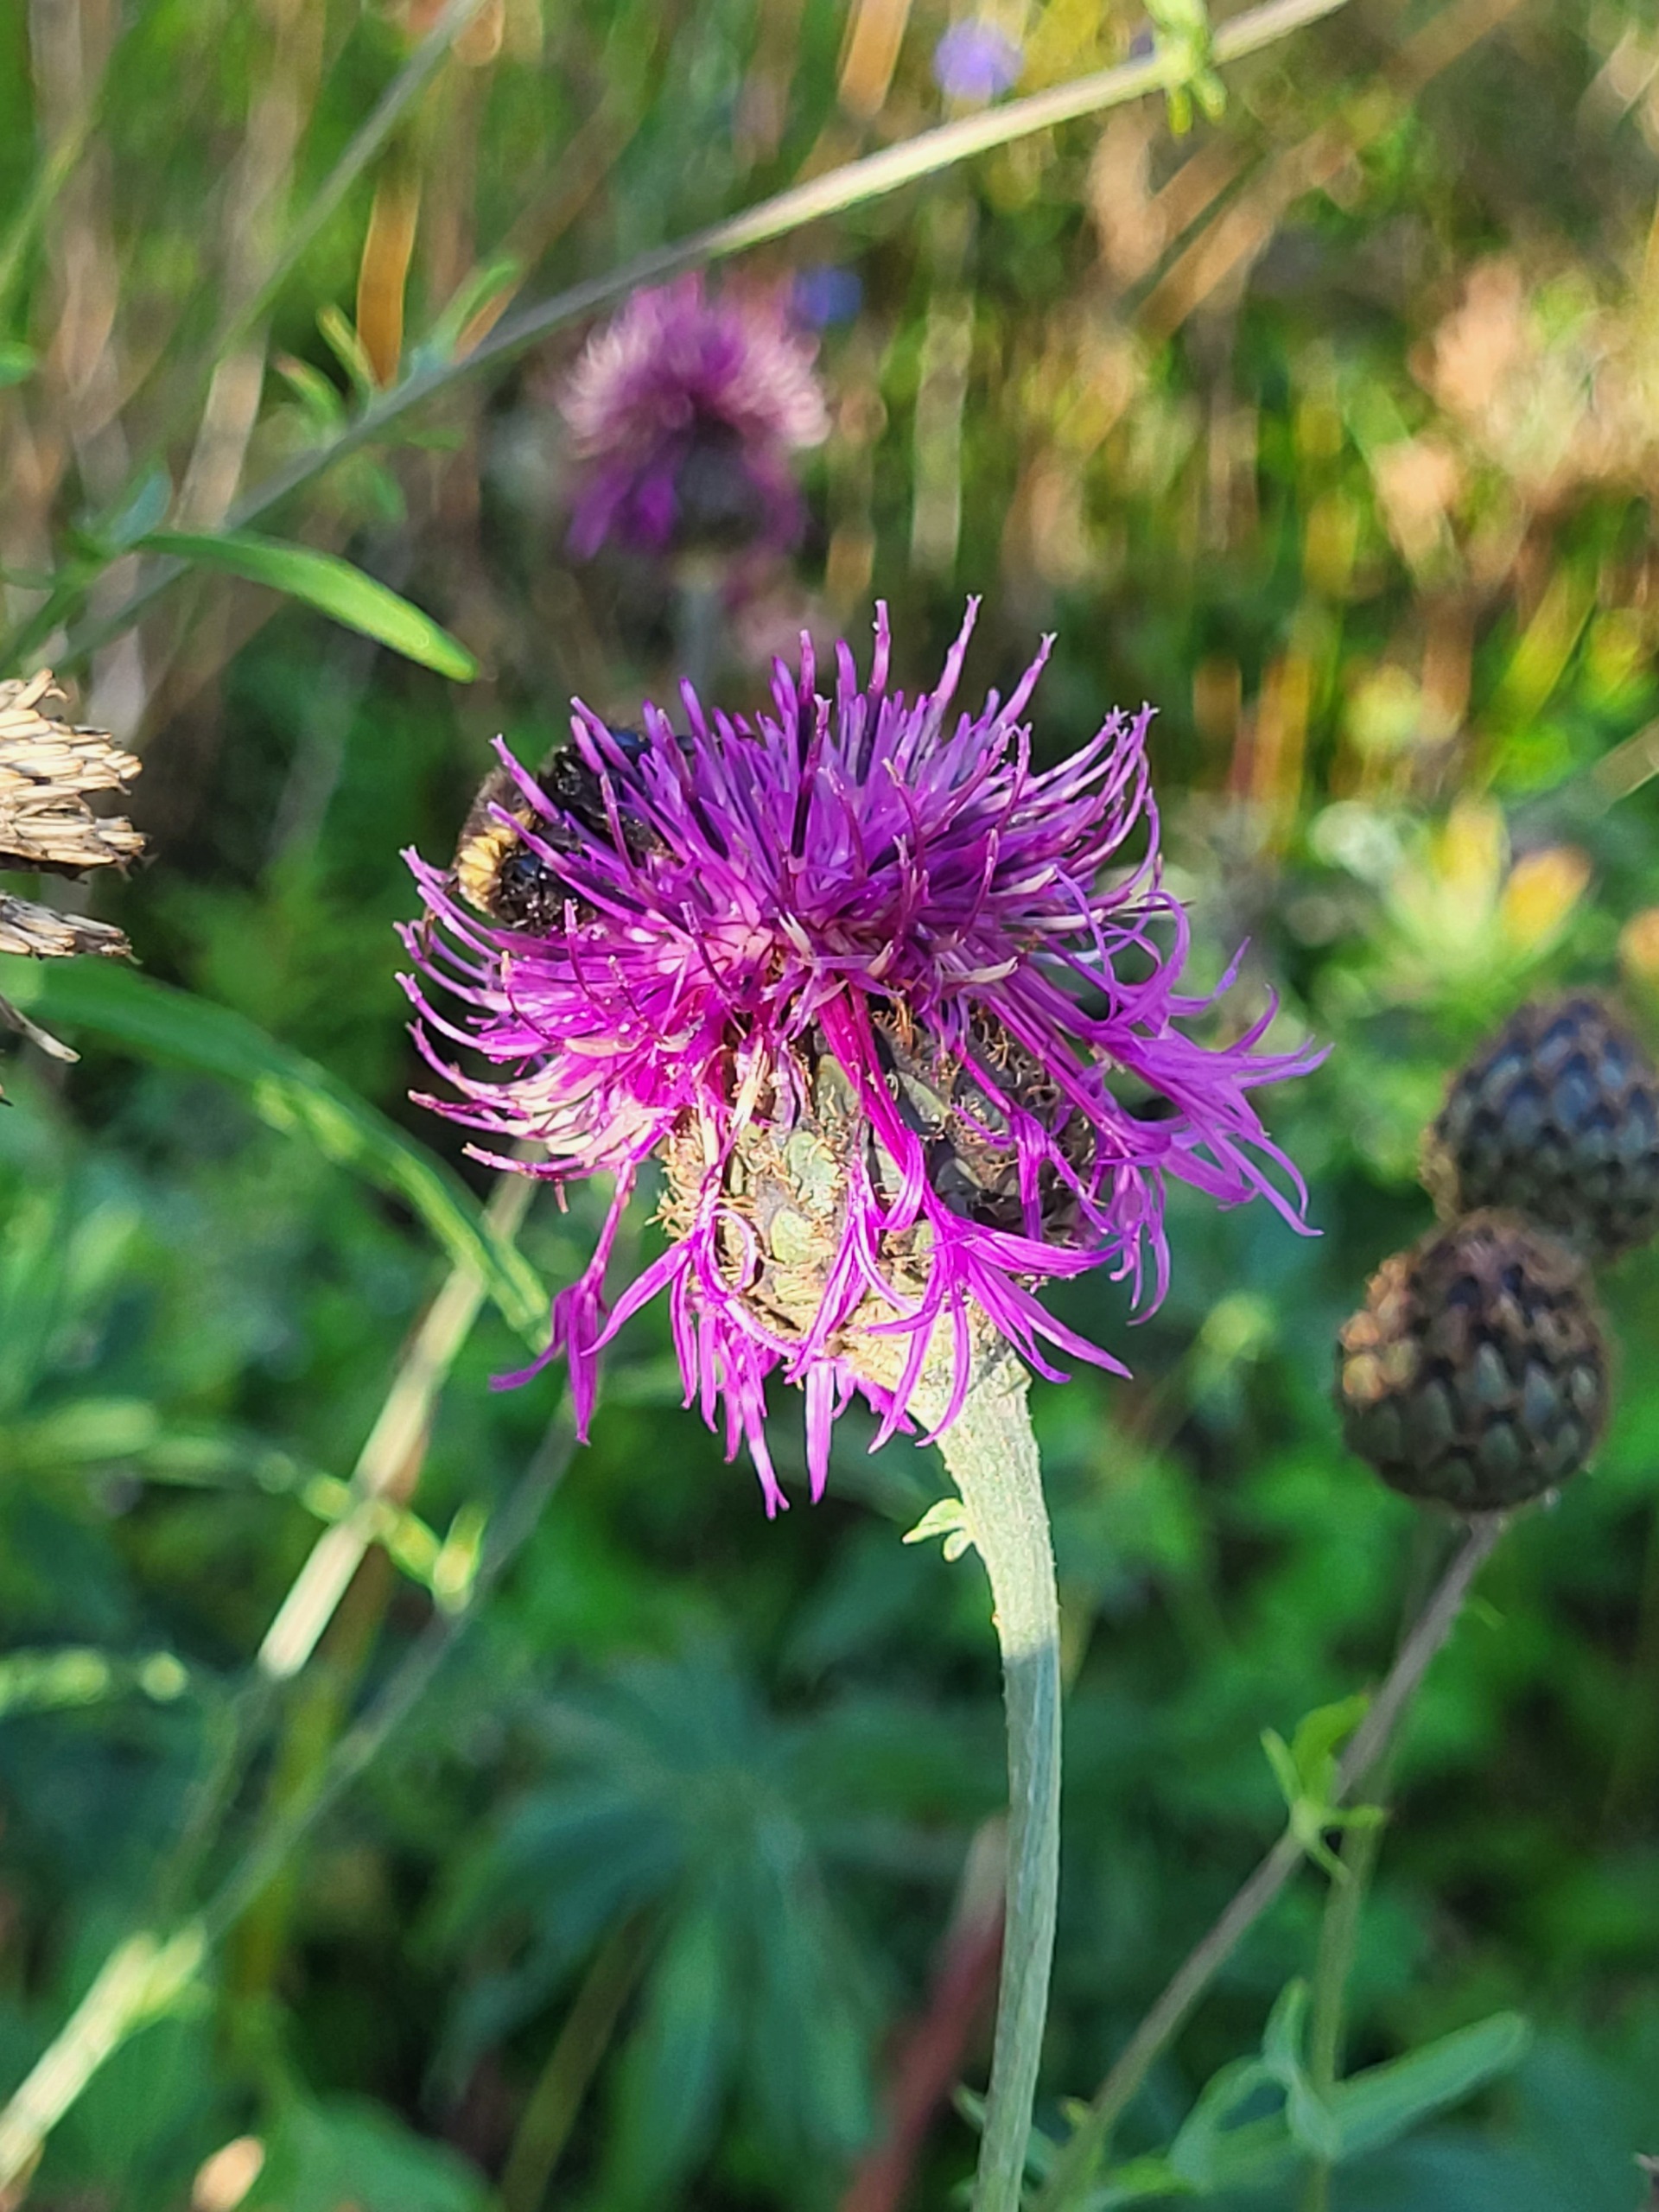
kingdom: Plantae
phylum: Tracheophyta
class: Magnoliopsida
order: Asterales
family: Asteraceae
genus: Centaurea
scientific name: Centaurea scabiosa
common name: Stor knopurt
